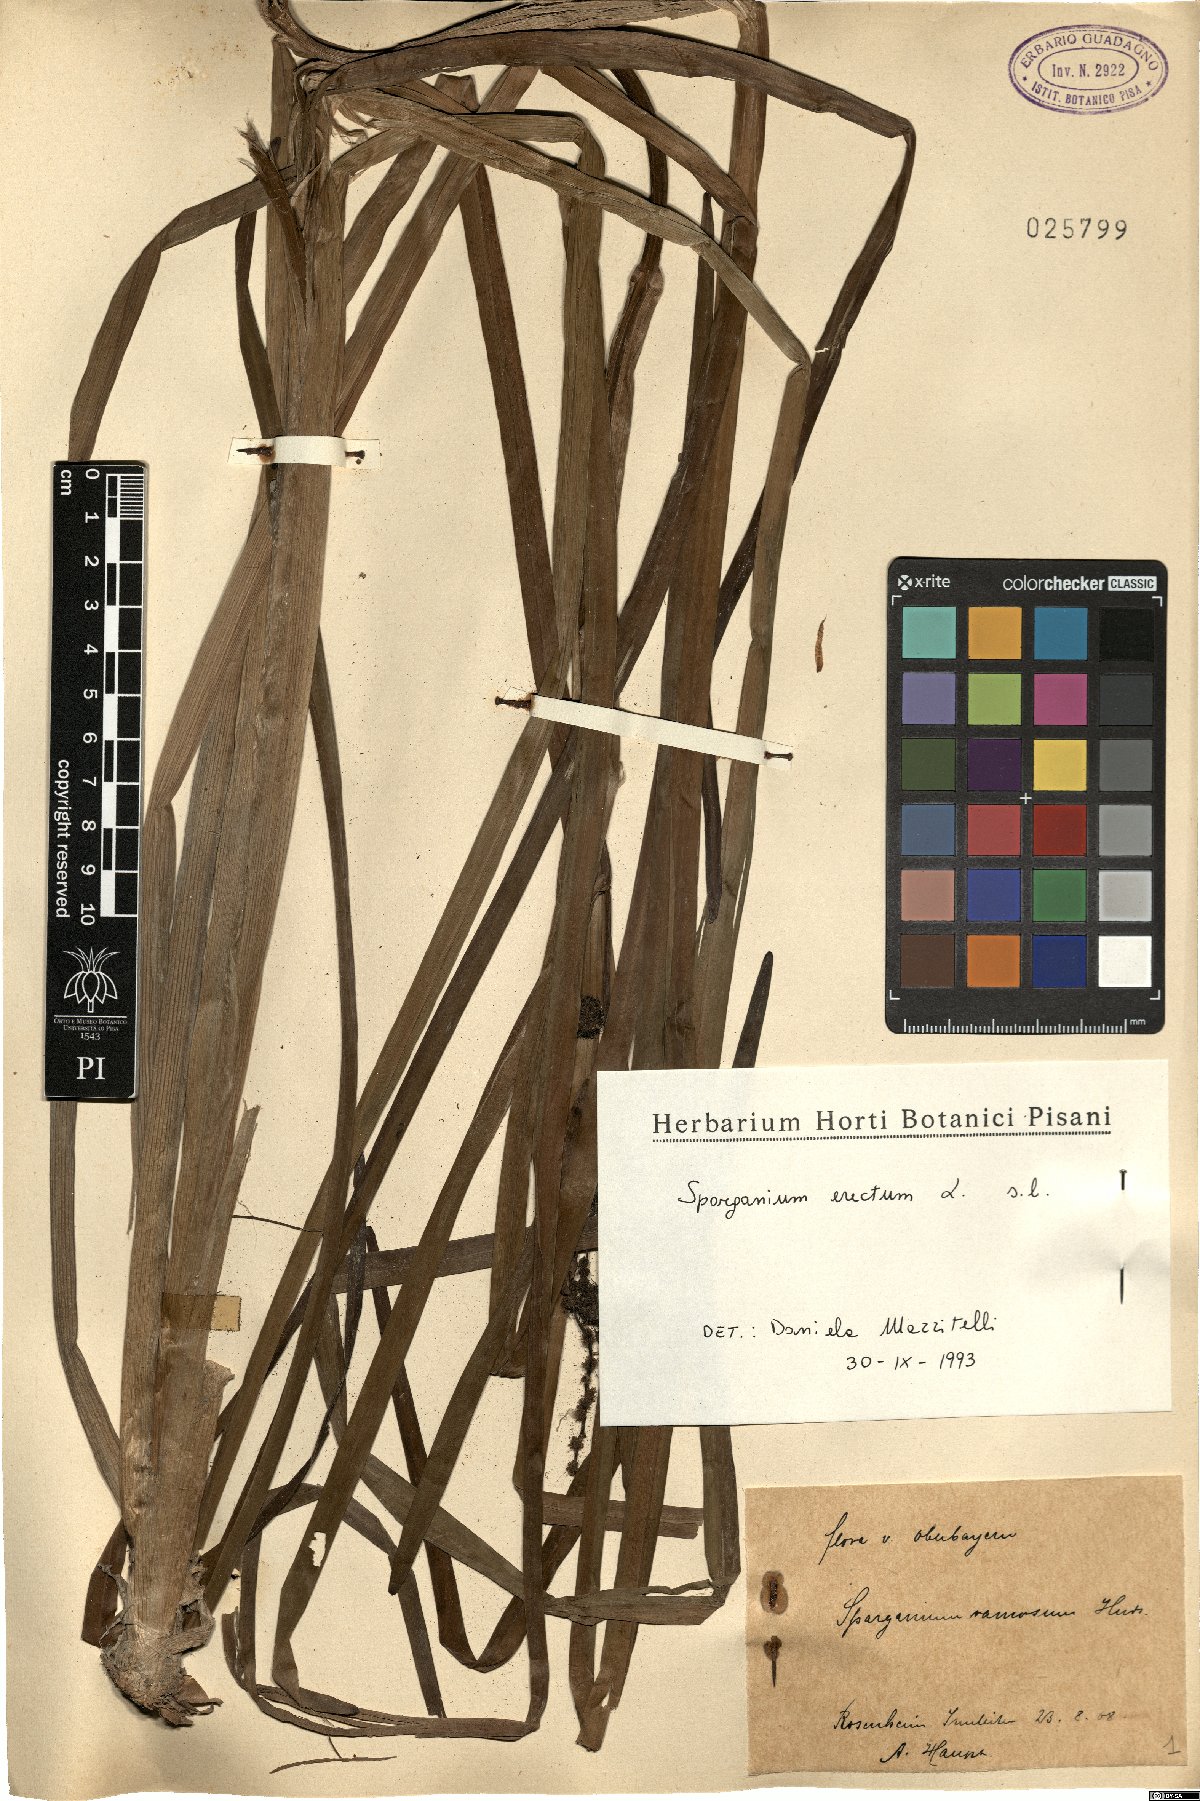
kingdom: Plantae
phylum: Tracheophyta
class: Liliopsida
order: Poales
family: Typhaceae
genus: Sparganium
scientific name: Sparganium erectum
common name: Branched bur-reed
